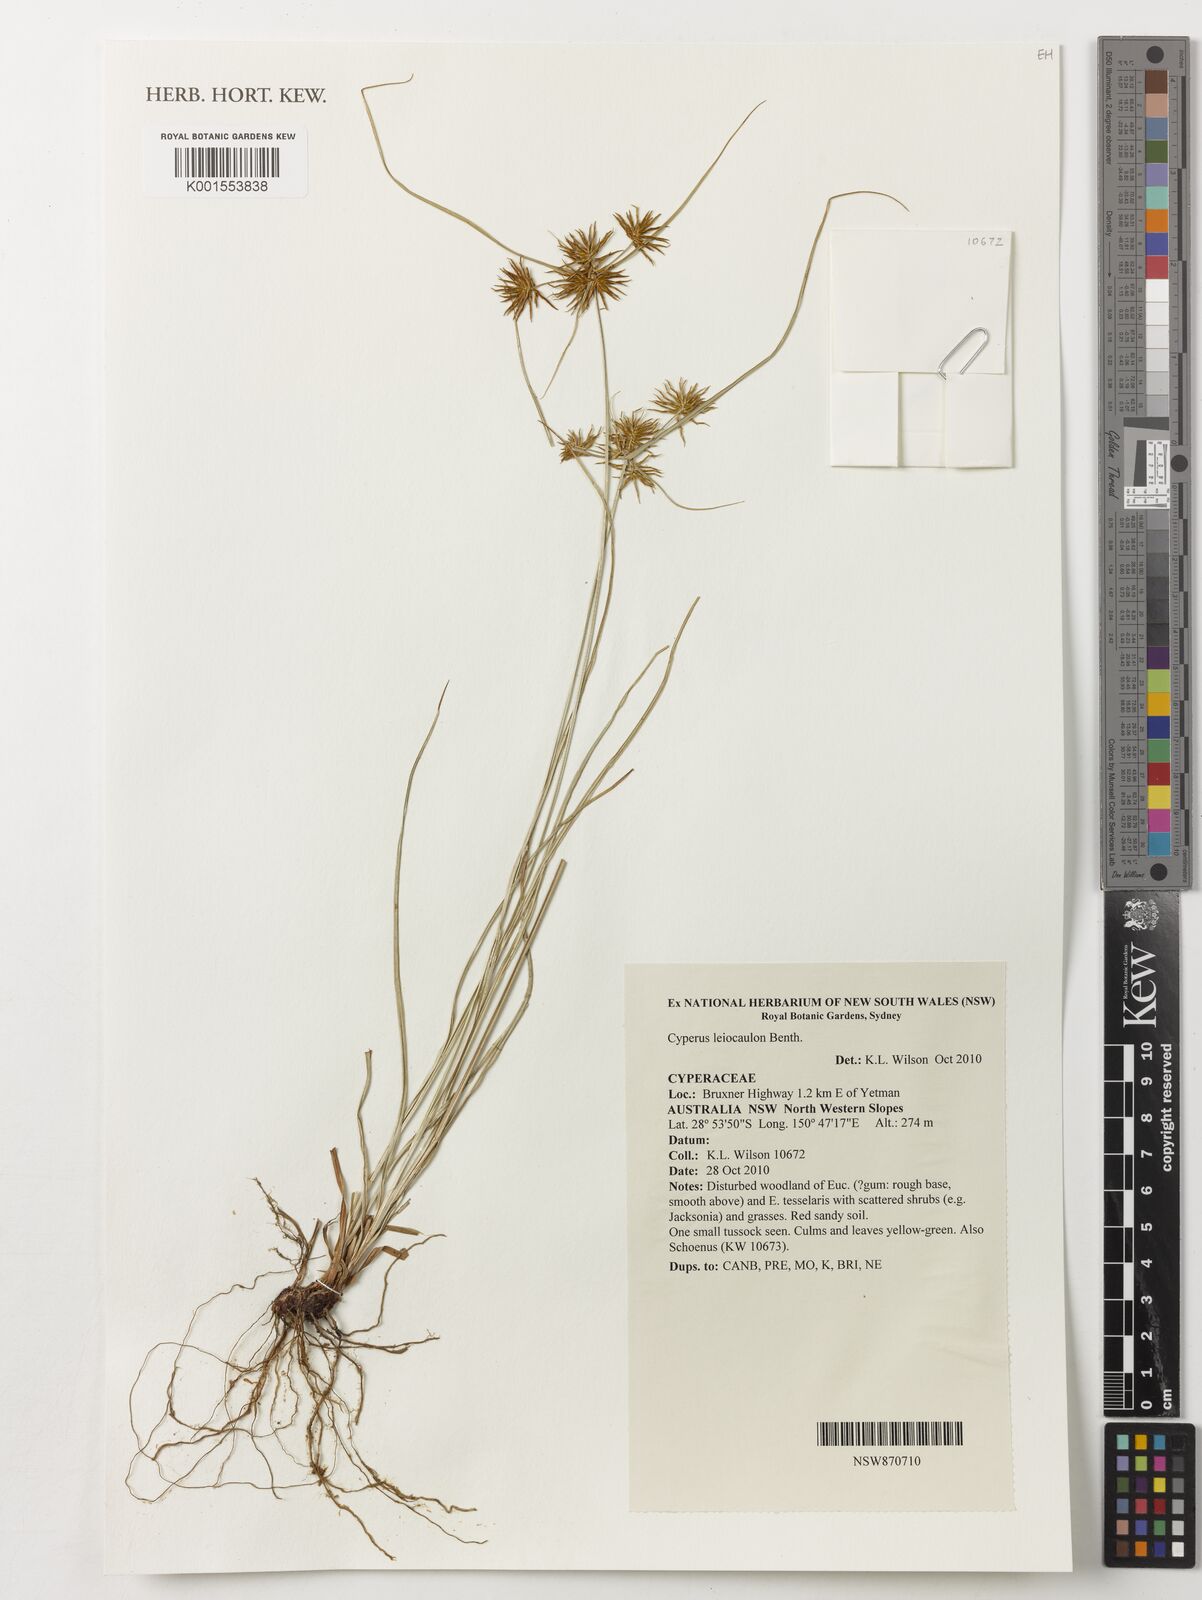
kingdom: Plantae
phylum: Tracheophyta
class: Liliopsida
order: Poales
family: Cyperaceae
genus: Cyperus
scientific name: Cyperus leiocaulon
